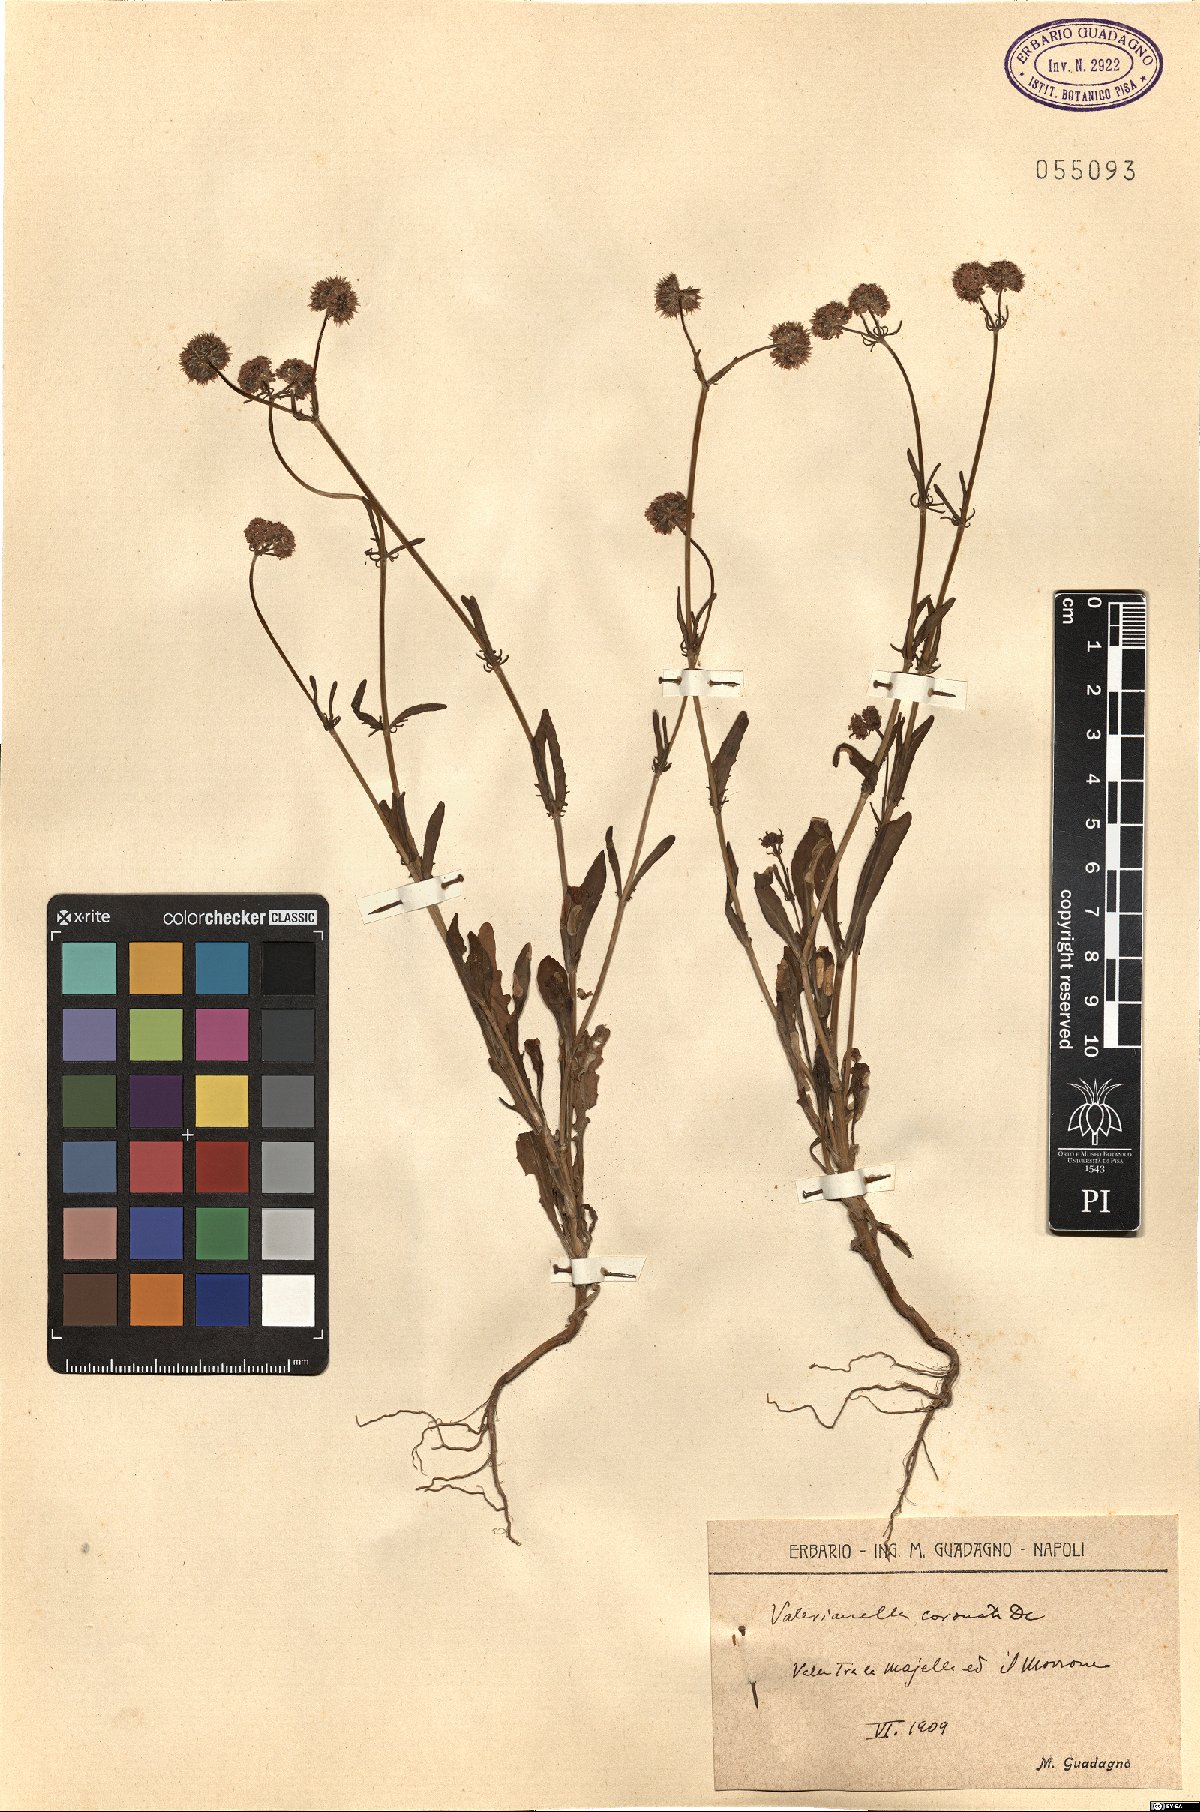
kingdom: Plantae
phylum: Tracheophyta
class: Magnoliopsida
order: Dipsacales
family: Caprifoliaceae
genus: Valerianella
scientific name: Valerianella coronata
